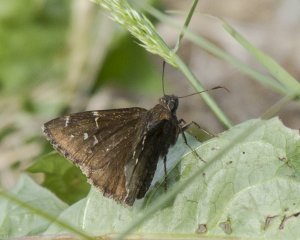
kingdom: Animalia
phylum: Arthropoda
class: Insecta
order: Lepidoptera
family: Hesperiidae
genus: Autochton
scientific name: Autochton
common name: Northern Cloudywing
